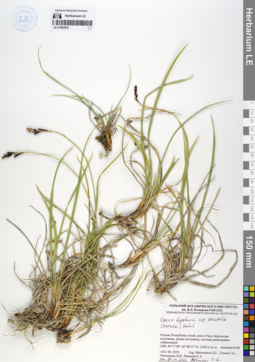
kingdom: Plantae
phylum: Tracheophyta
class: Liliopsida
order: Poales
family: Cyperaceae
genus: Carex
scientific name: Carex bigelowii
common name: Stiff sedge
